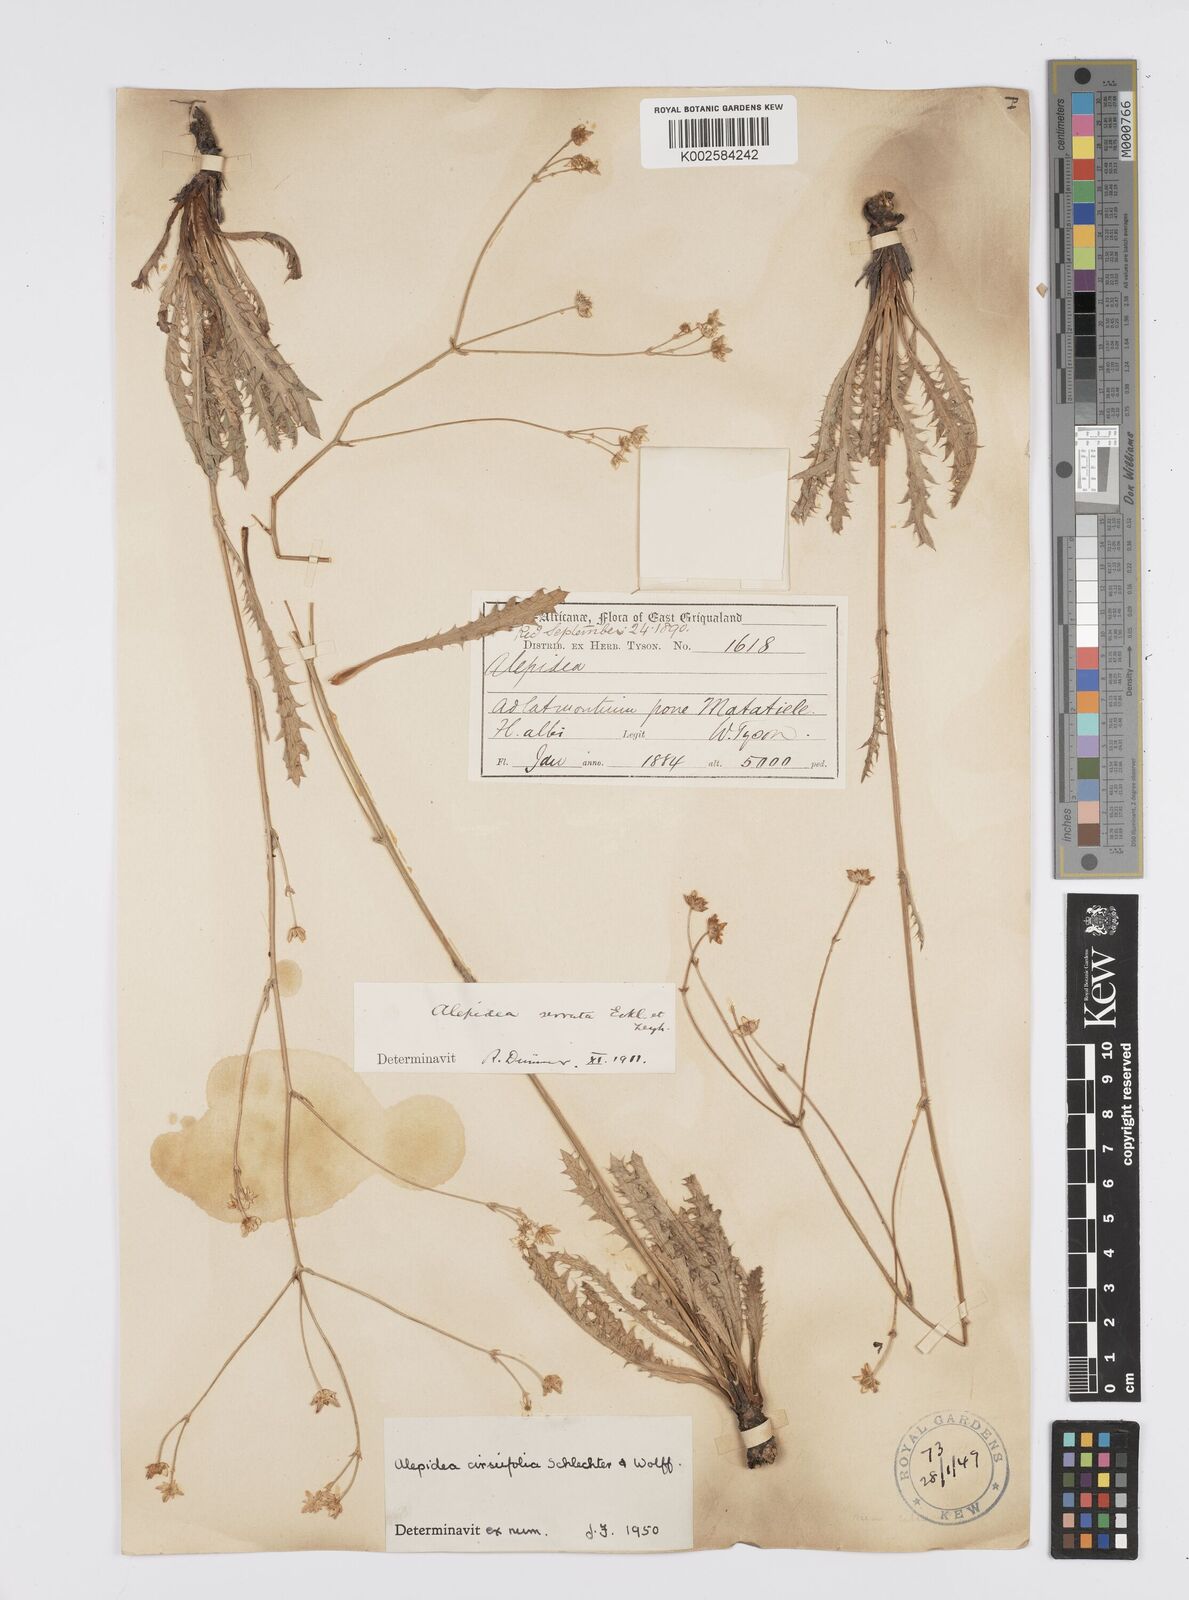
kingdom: Plantae
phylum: Tracheophyta
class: Magnoliopsida
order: Apiales
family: Apiaceae
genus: Alepidea
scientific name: Alepidea cirsiifolia
